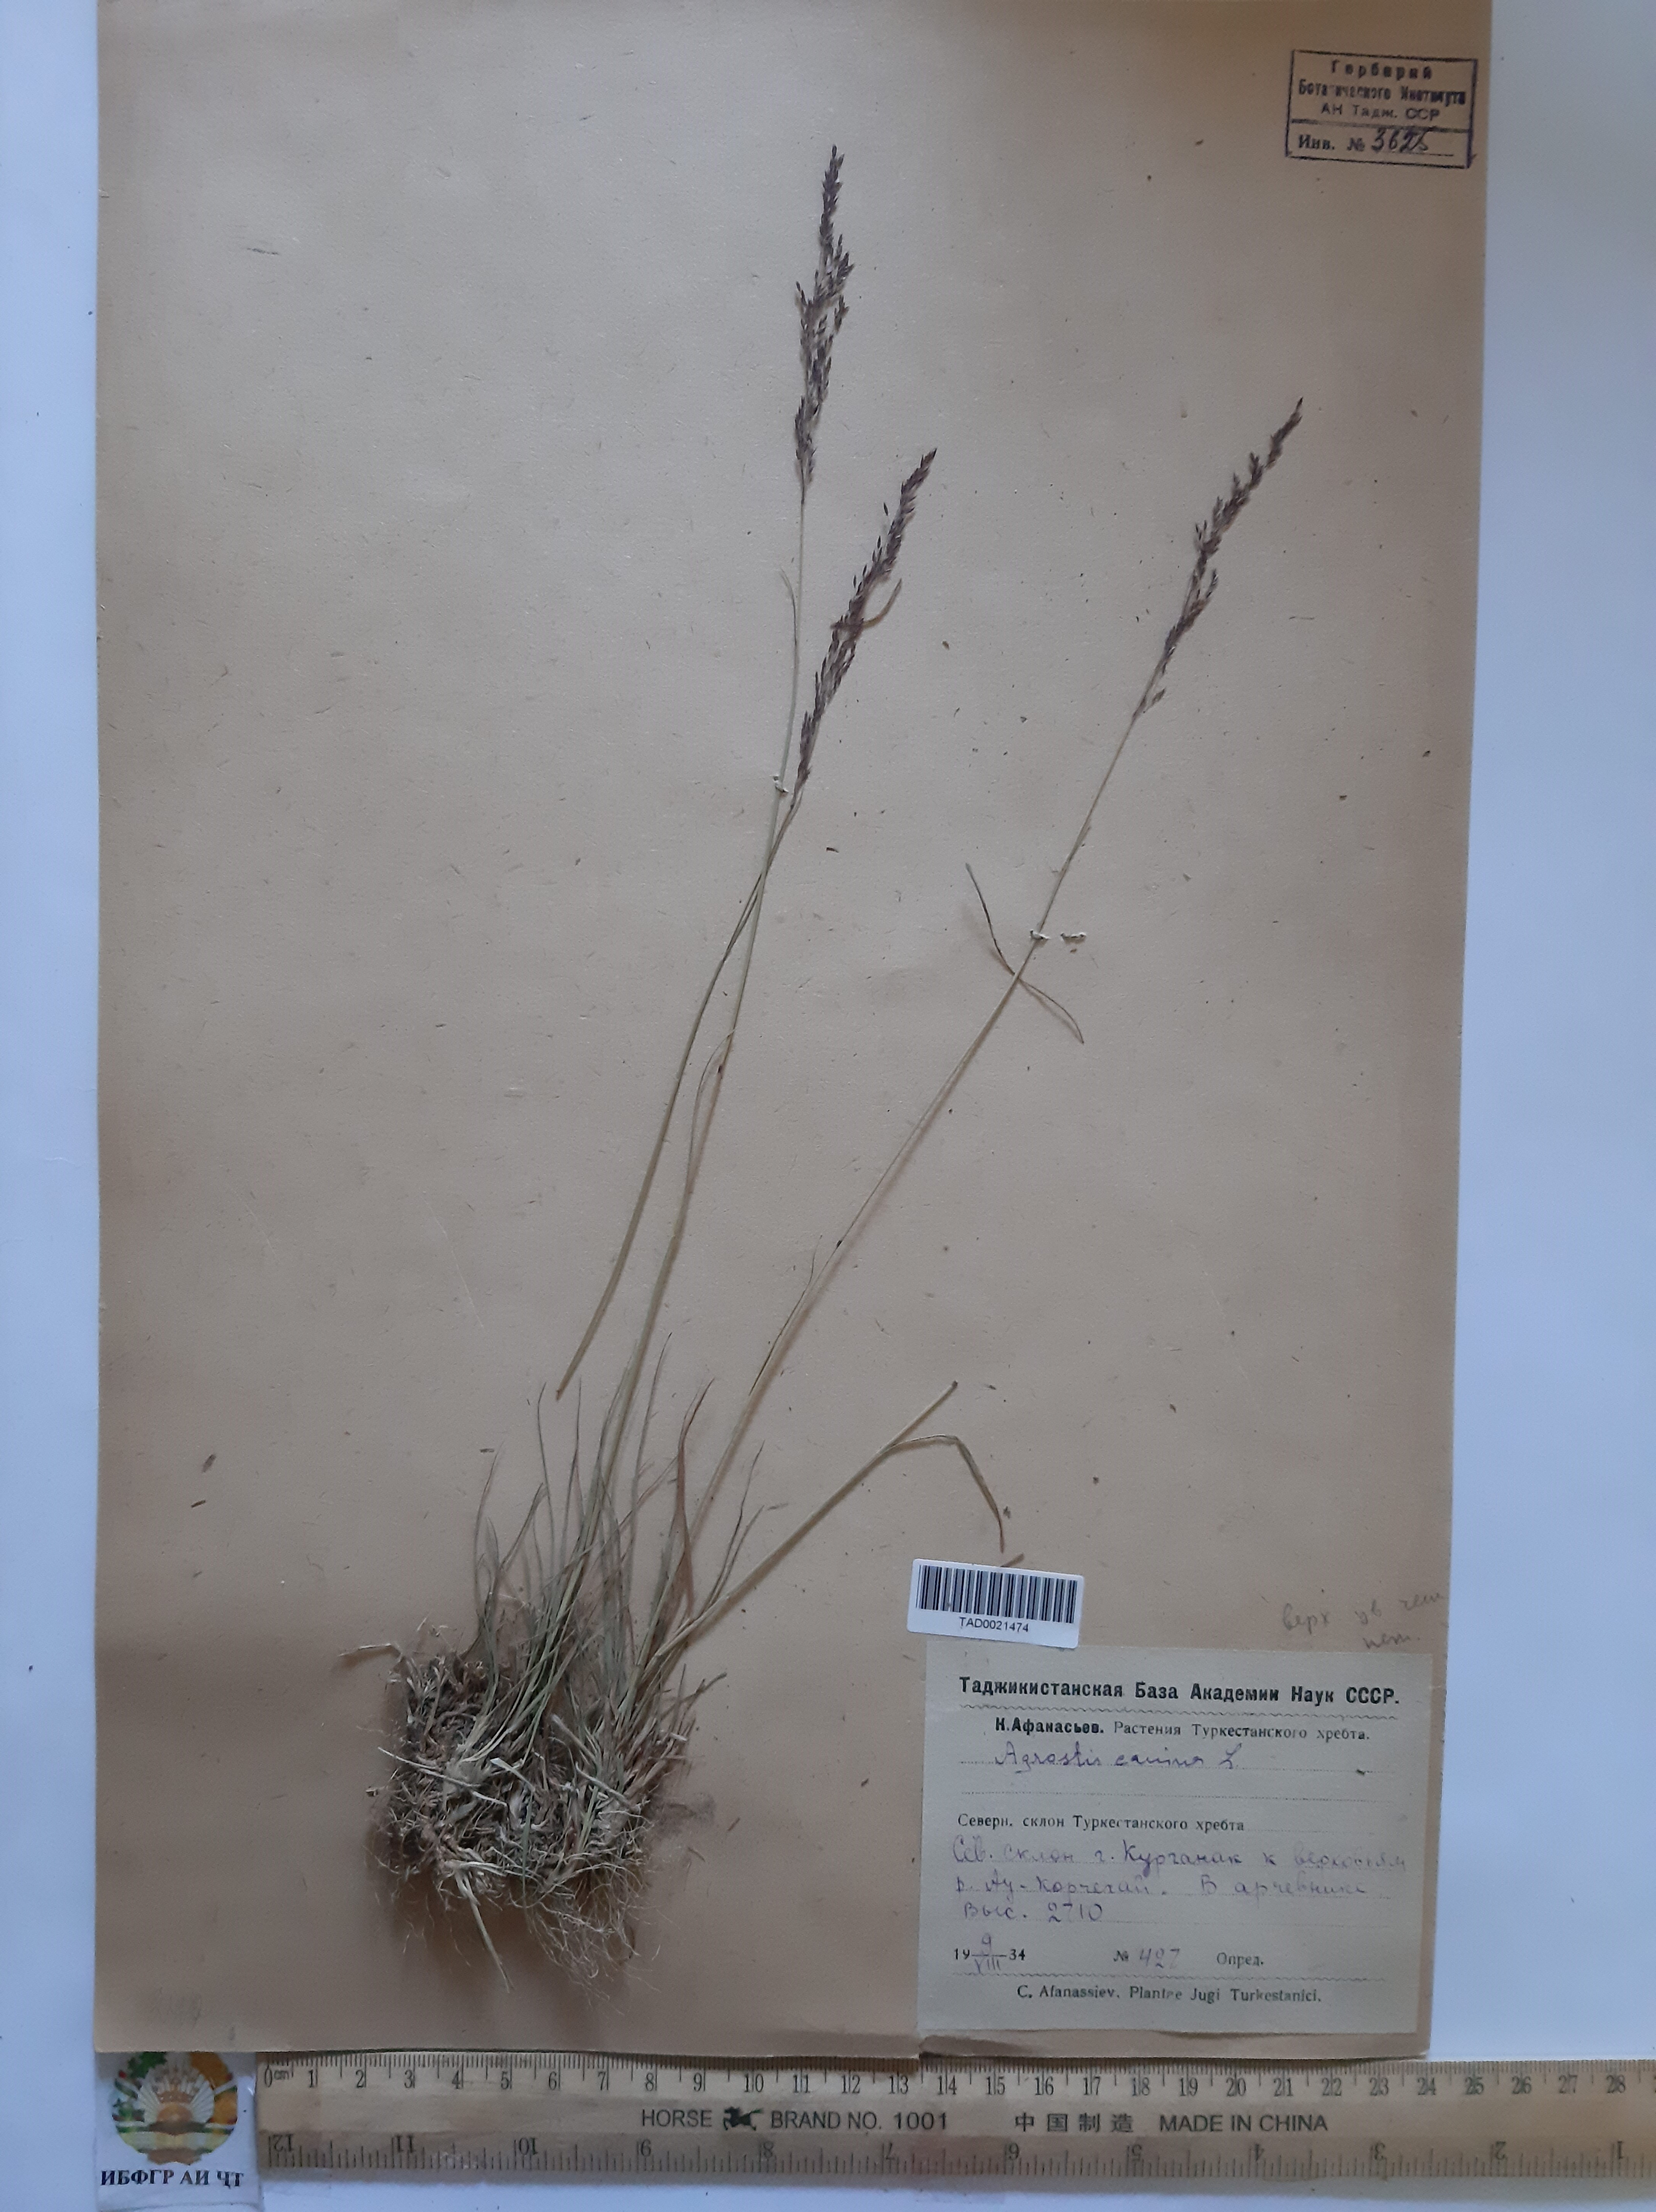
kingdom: Plantae
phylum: Tracheophyta
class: Liliopsida
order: Poales
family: Poaceae
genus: Agrostis
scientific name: Agrostis canina
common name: Velvet bent
